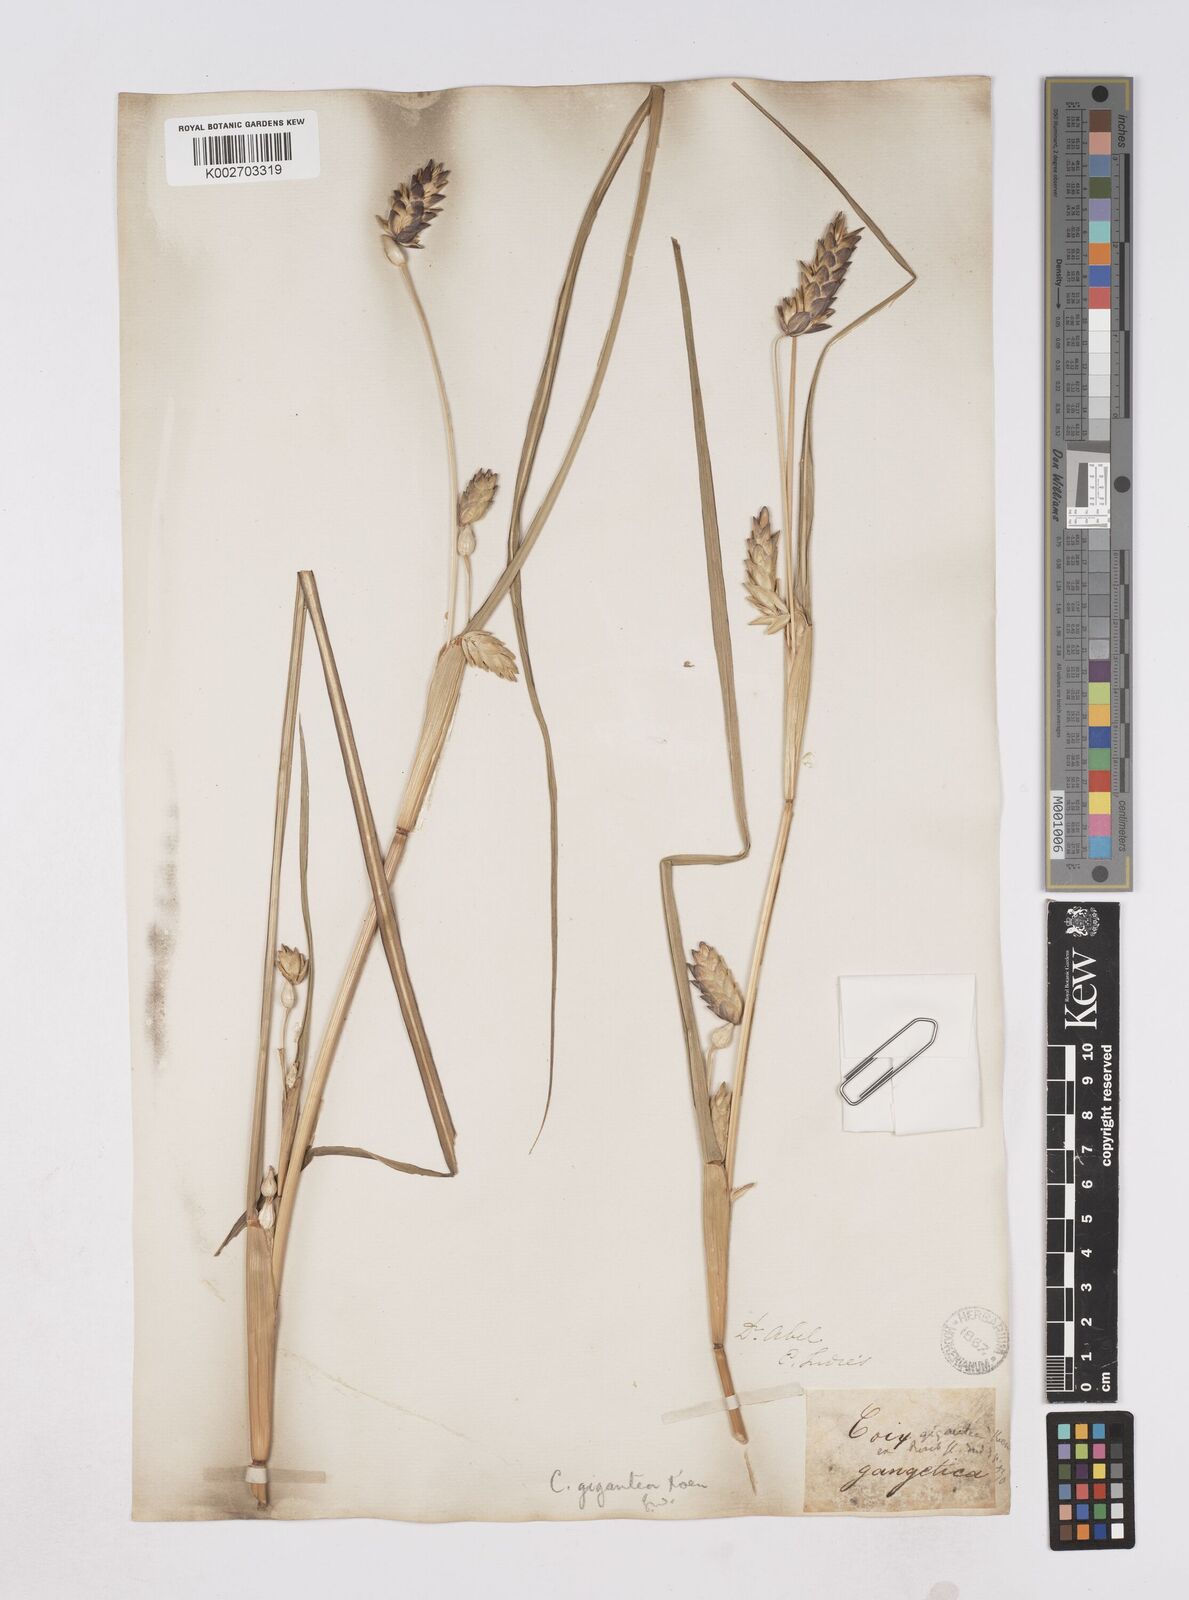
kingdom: Plantae
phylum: Tracheophyta
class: Liliopsida
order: Poales
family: Poaceae
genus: Coix
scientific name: Coix aquatica
